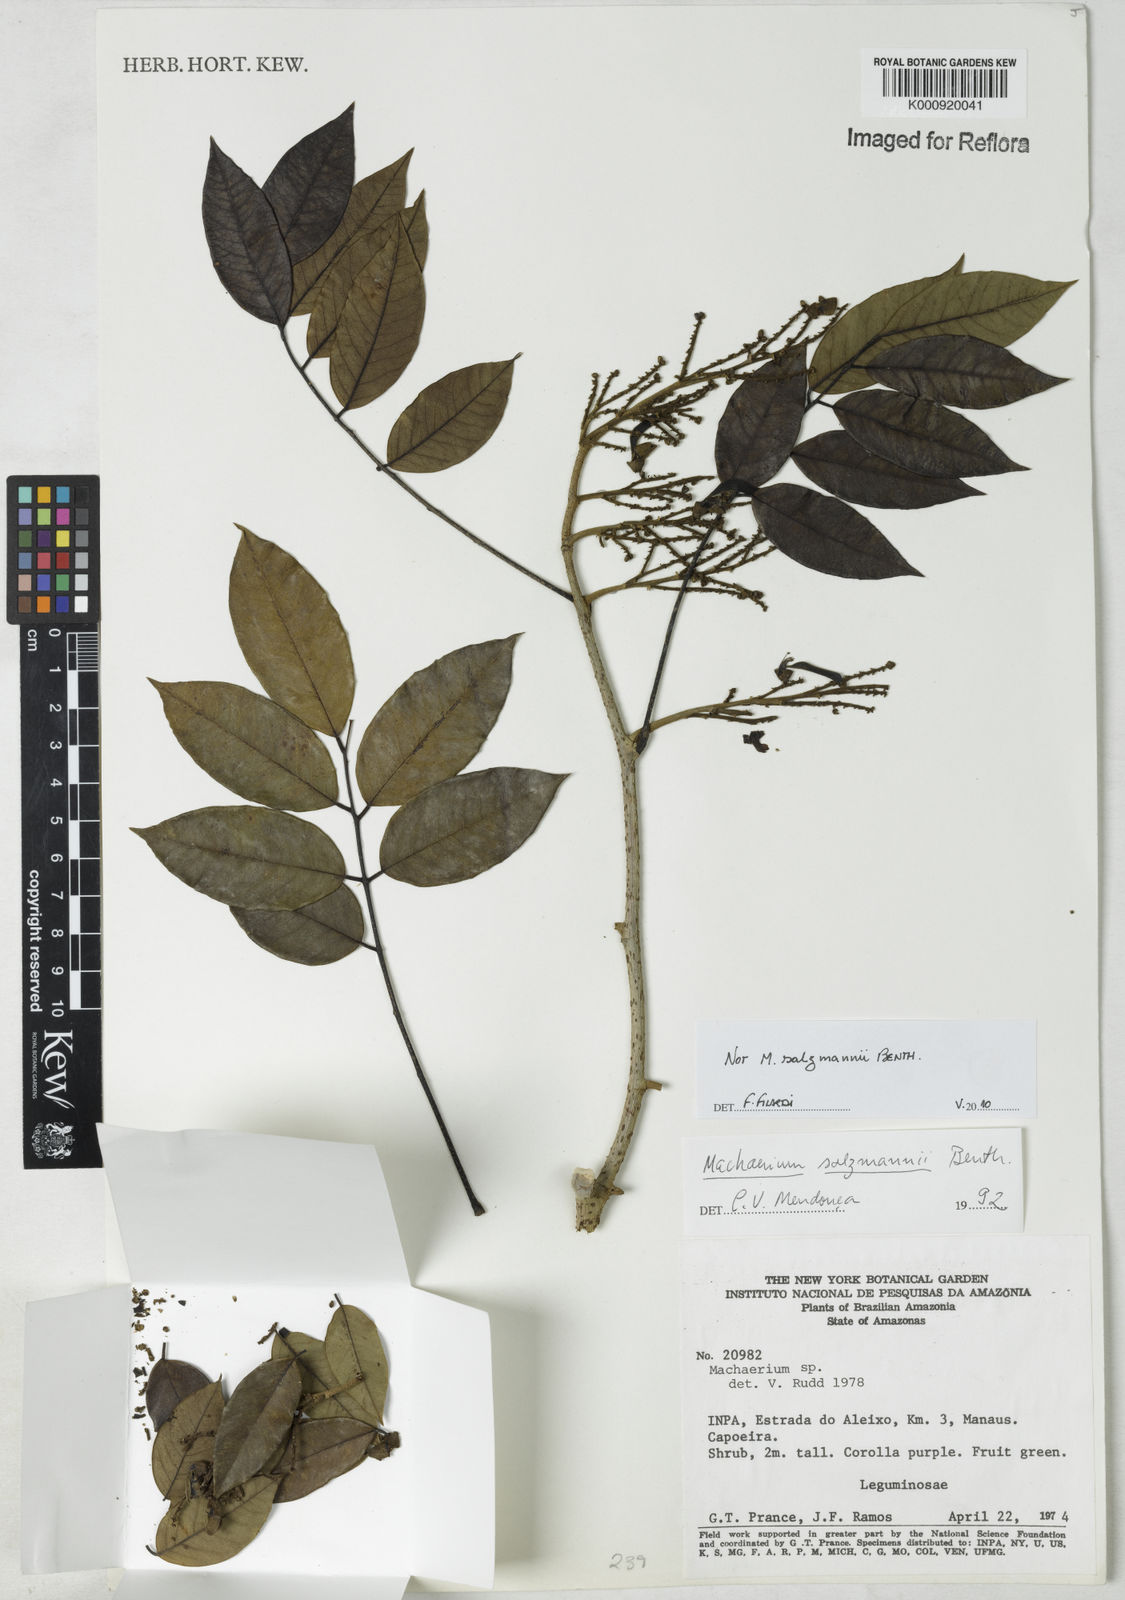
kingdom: Plantae
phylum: Tracheophyta
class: Magnoliopsida
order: Fabales
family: Fabaceae
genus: Machaerium
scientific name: Machaerium
